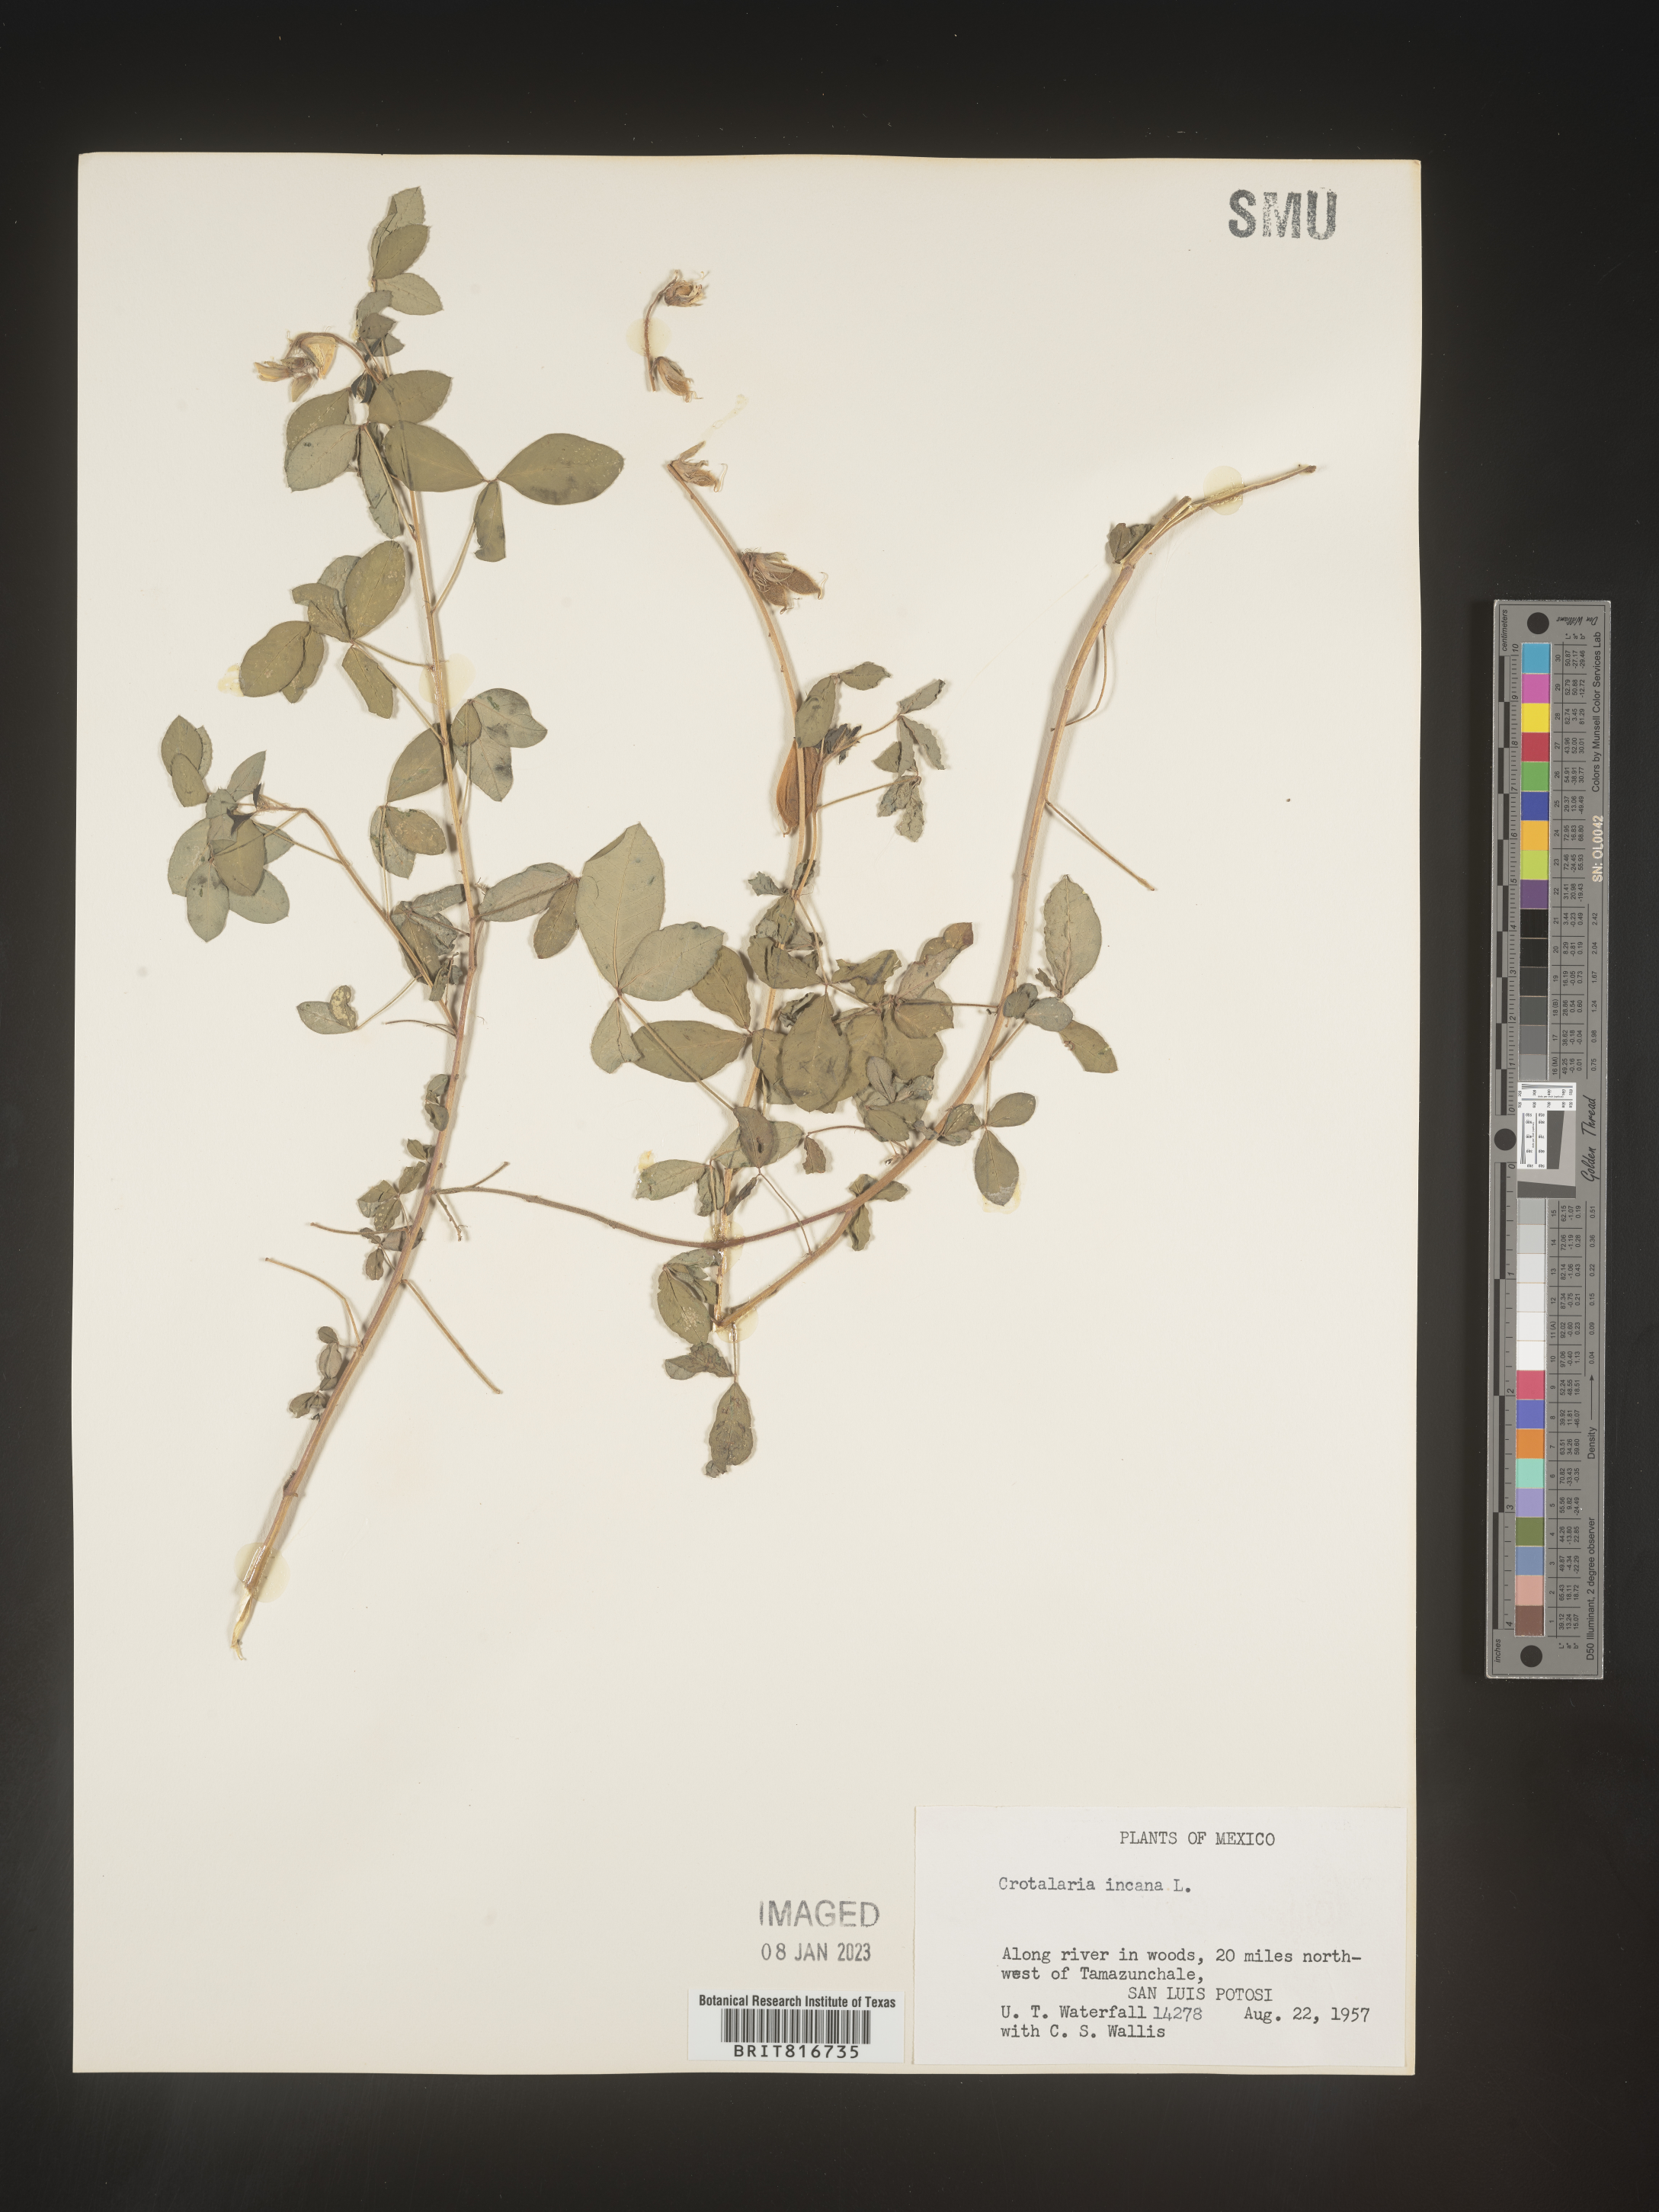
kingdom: Plantae
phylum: Tracheophyta
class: Magnoliopsida
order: Fabales
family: Fabaceae
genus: Crotalaria
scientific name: Crotalaria
